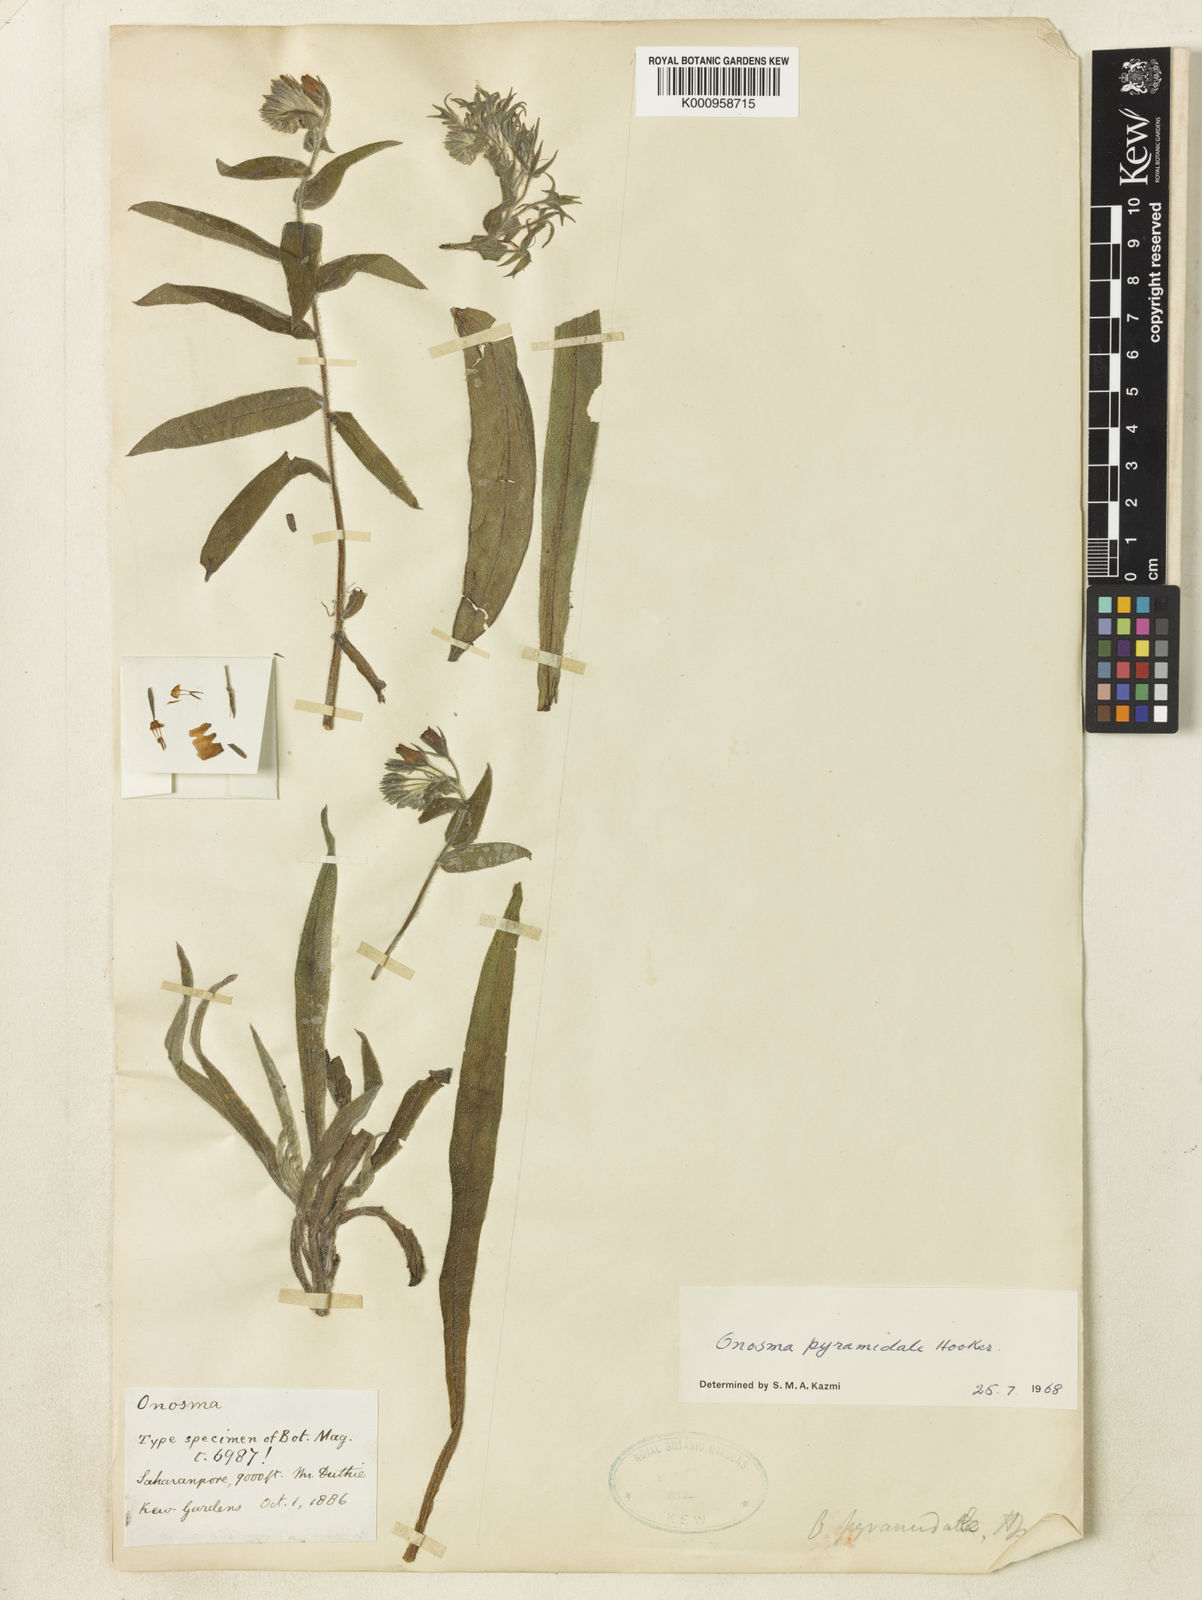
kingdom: Plantae
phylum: Tracheophyta
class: Magnoliopsida
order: Boraginales
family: Boraginaceae
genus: Maharanga
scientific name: Maharanga pyramidalis
